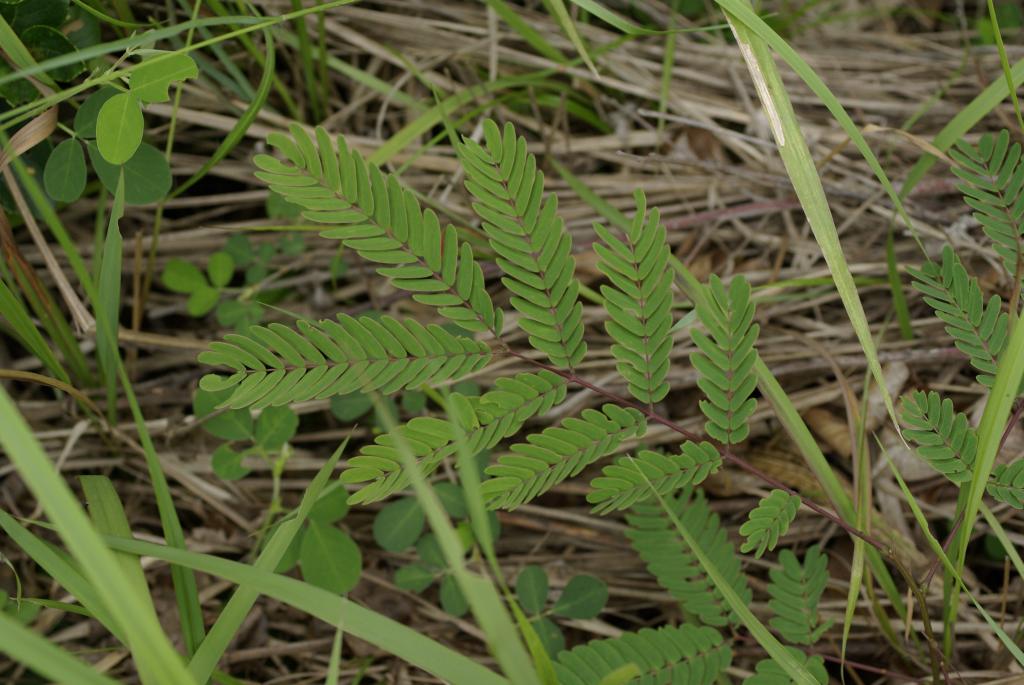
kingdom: Plantae
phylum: Tracheophyta
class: Magnoliopsida
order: Fabales
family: Fabaceae
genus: Leucaena
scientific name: Leucaena leucocephala
